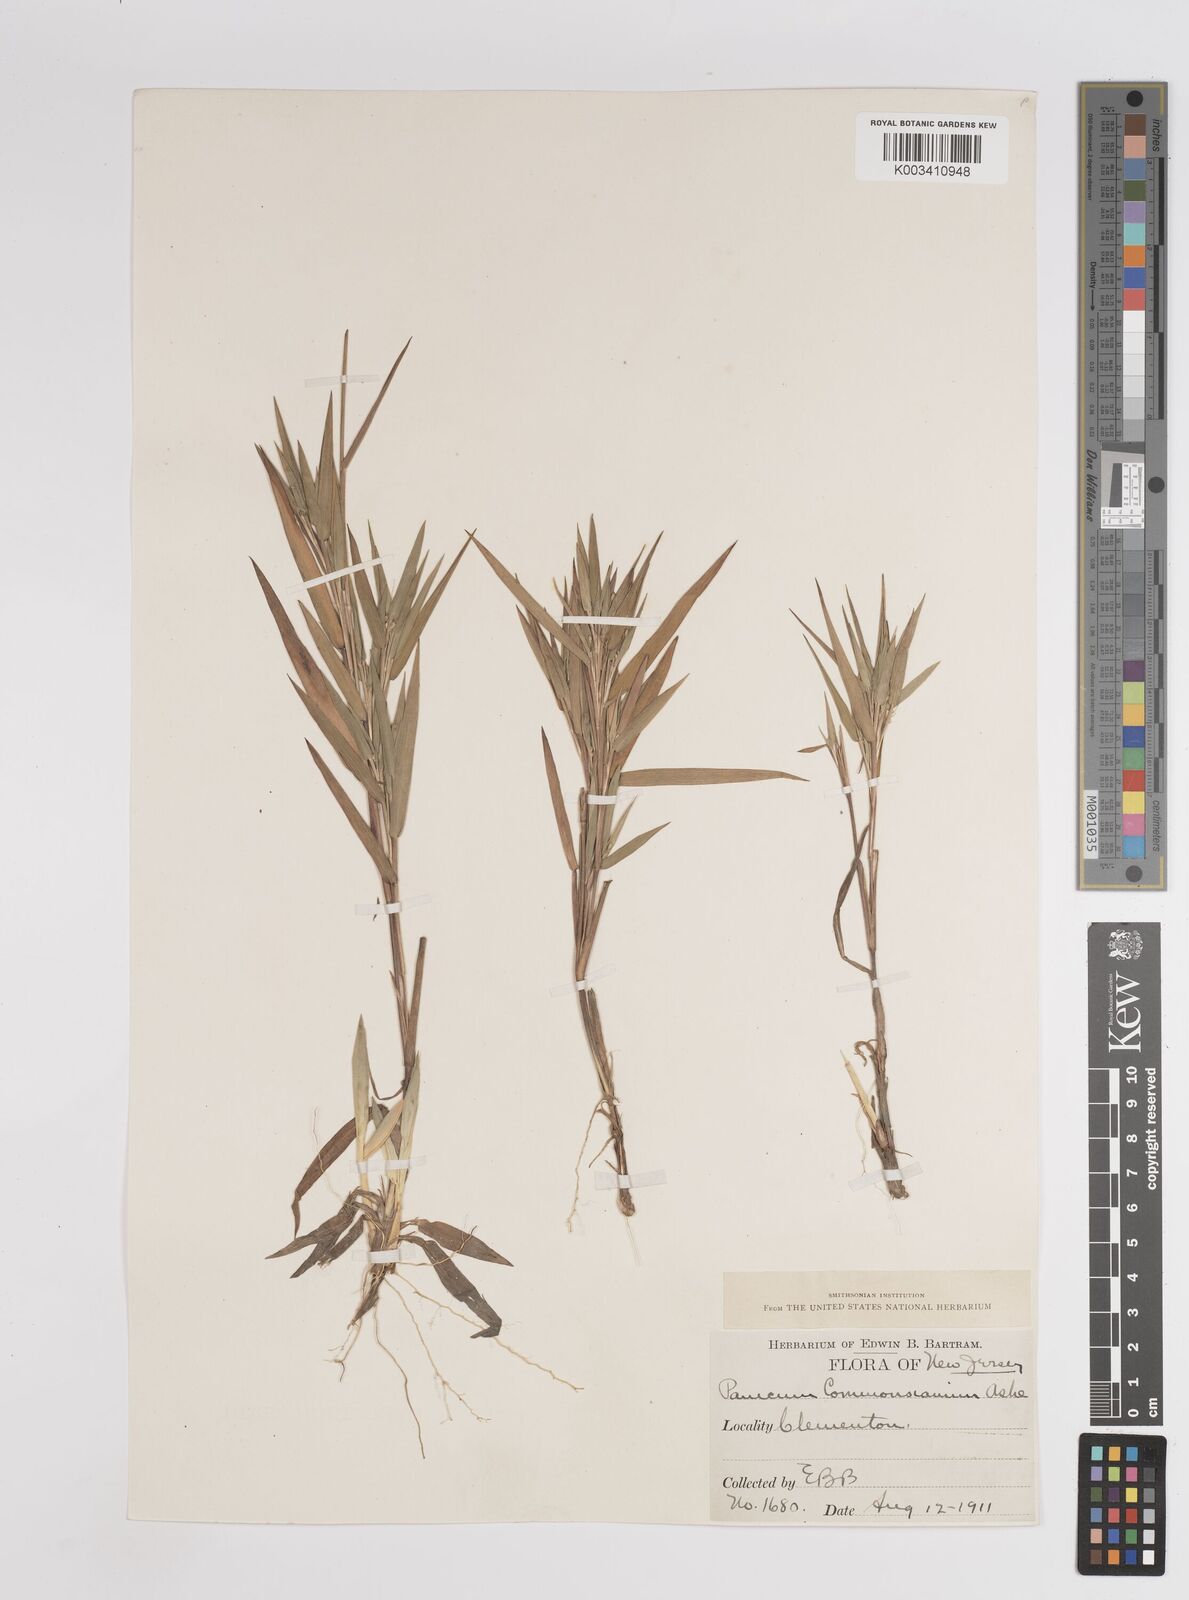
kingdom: Plantae
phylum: Tracheophyta
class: Liliopsida
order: Poales
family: Poaceae
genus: Dichanthelium
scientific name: Dichanthelium commonsianum
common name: Commons' panicgrass
